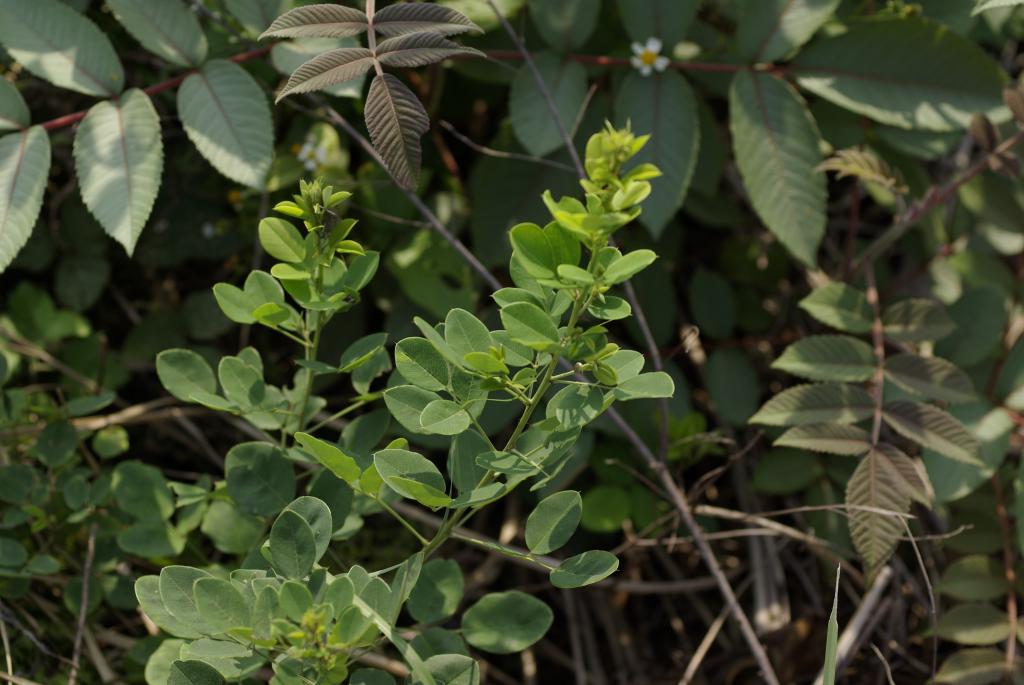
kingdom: Plantae
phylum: Tracheophyta
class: Magnoliopsida
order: Fabales
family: Fabaceae
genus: Lespedeza
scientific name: Lespedeza thunbergii
